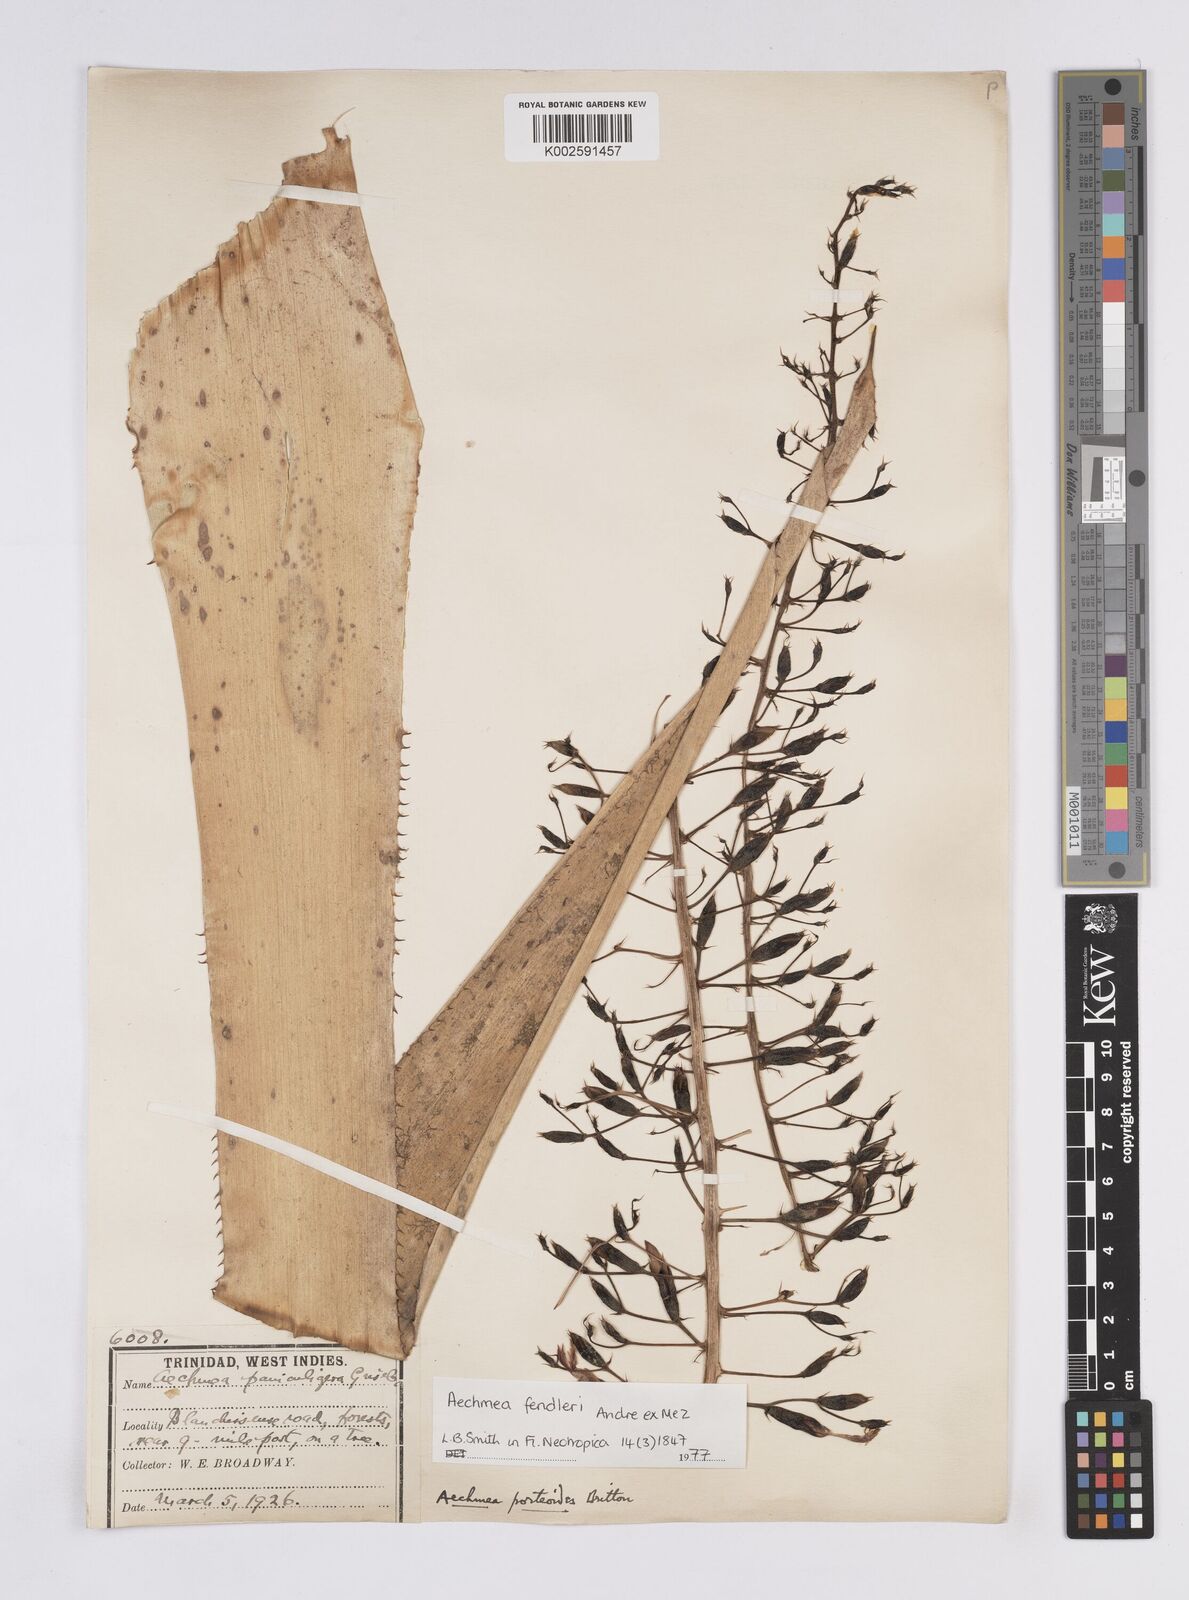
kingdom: Plantae
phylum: Tracheophyta
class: Liliopsida
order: Poales
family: Bromeliaceae
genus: Aechmea
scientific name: Aechmea fendleri
